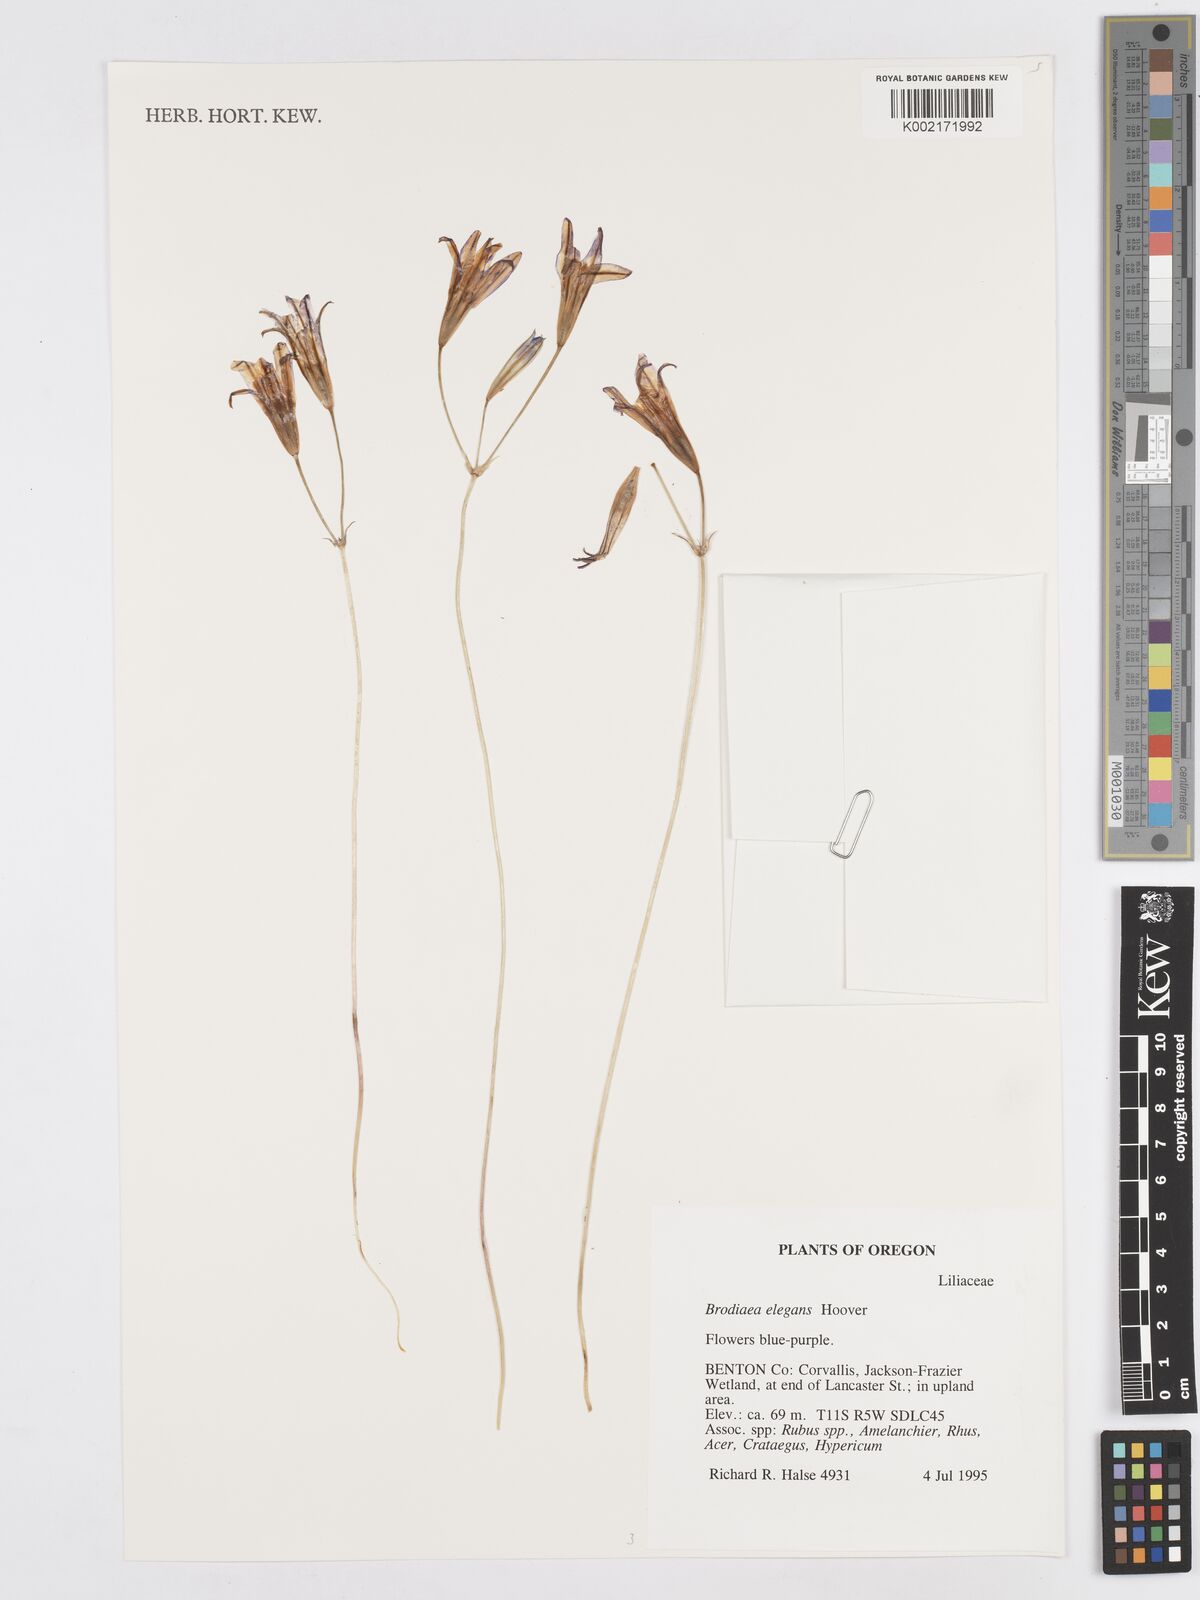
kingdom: Plantae
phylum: Tracheophyta
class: Liliopsida
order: Asparagales
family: Asparagaceae
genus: Brodiaea
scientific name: Brodiaea elegans
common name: Elegant cluster-lily
